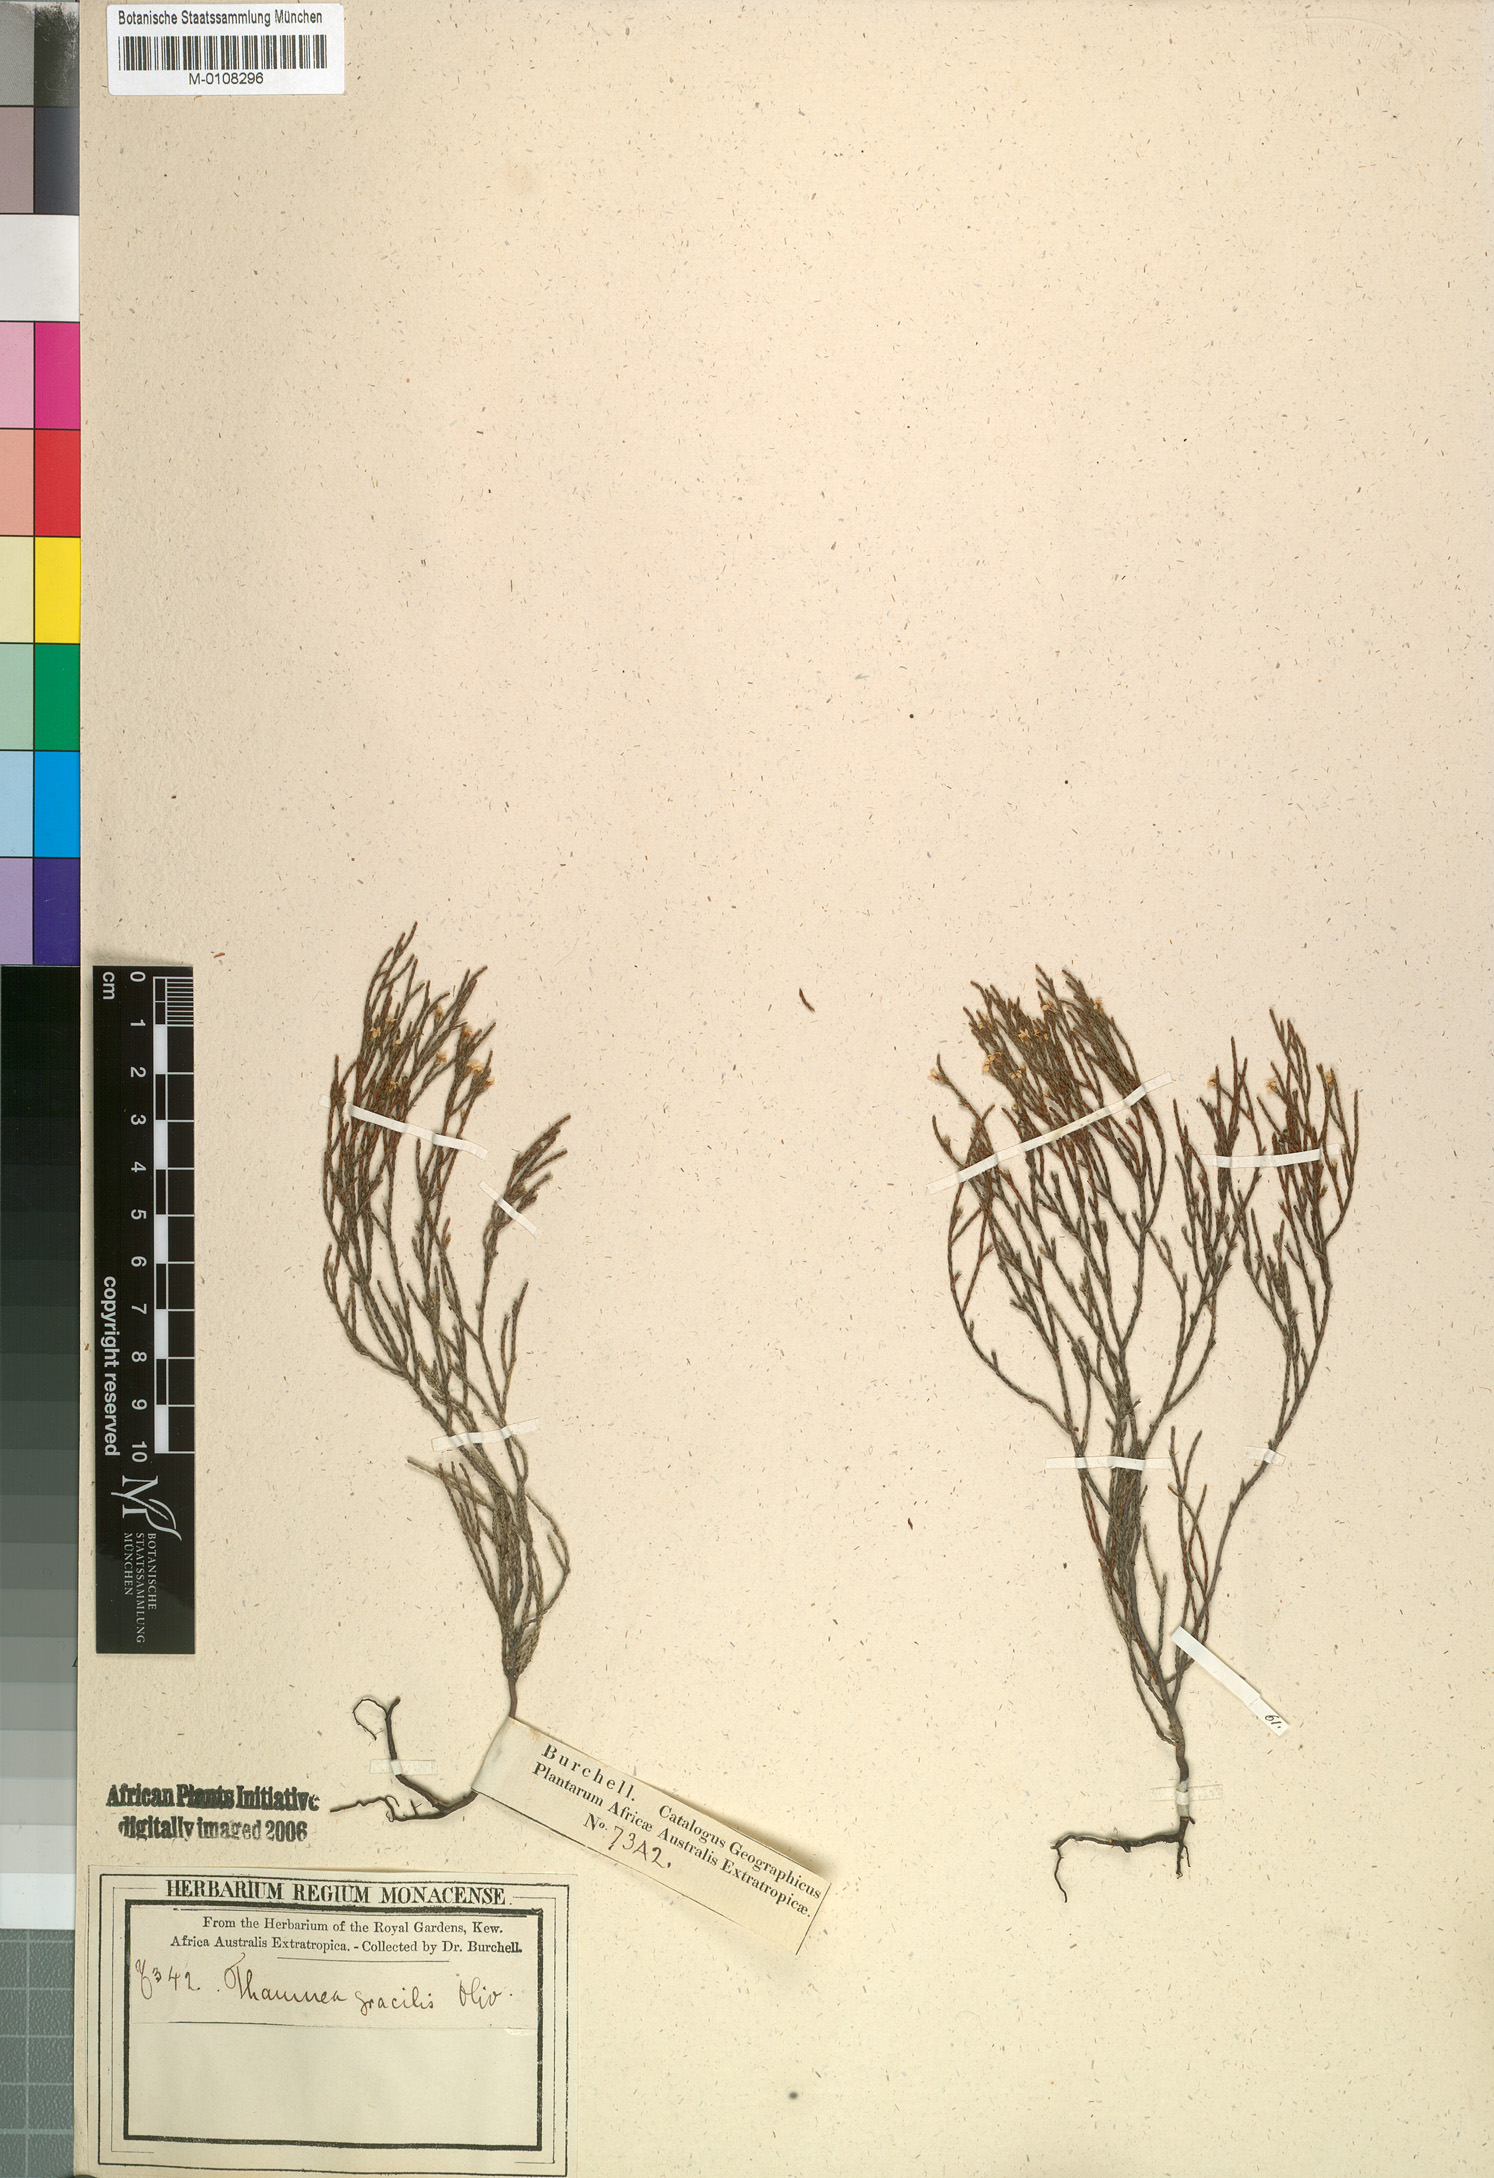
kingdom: Plantae
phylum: Tracheophyta
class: Magnoliopsida
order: Bruniales
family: Bruniaceae
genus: Thamnea
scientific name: Thamnea gracilis
